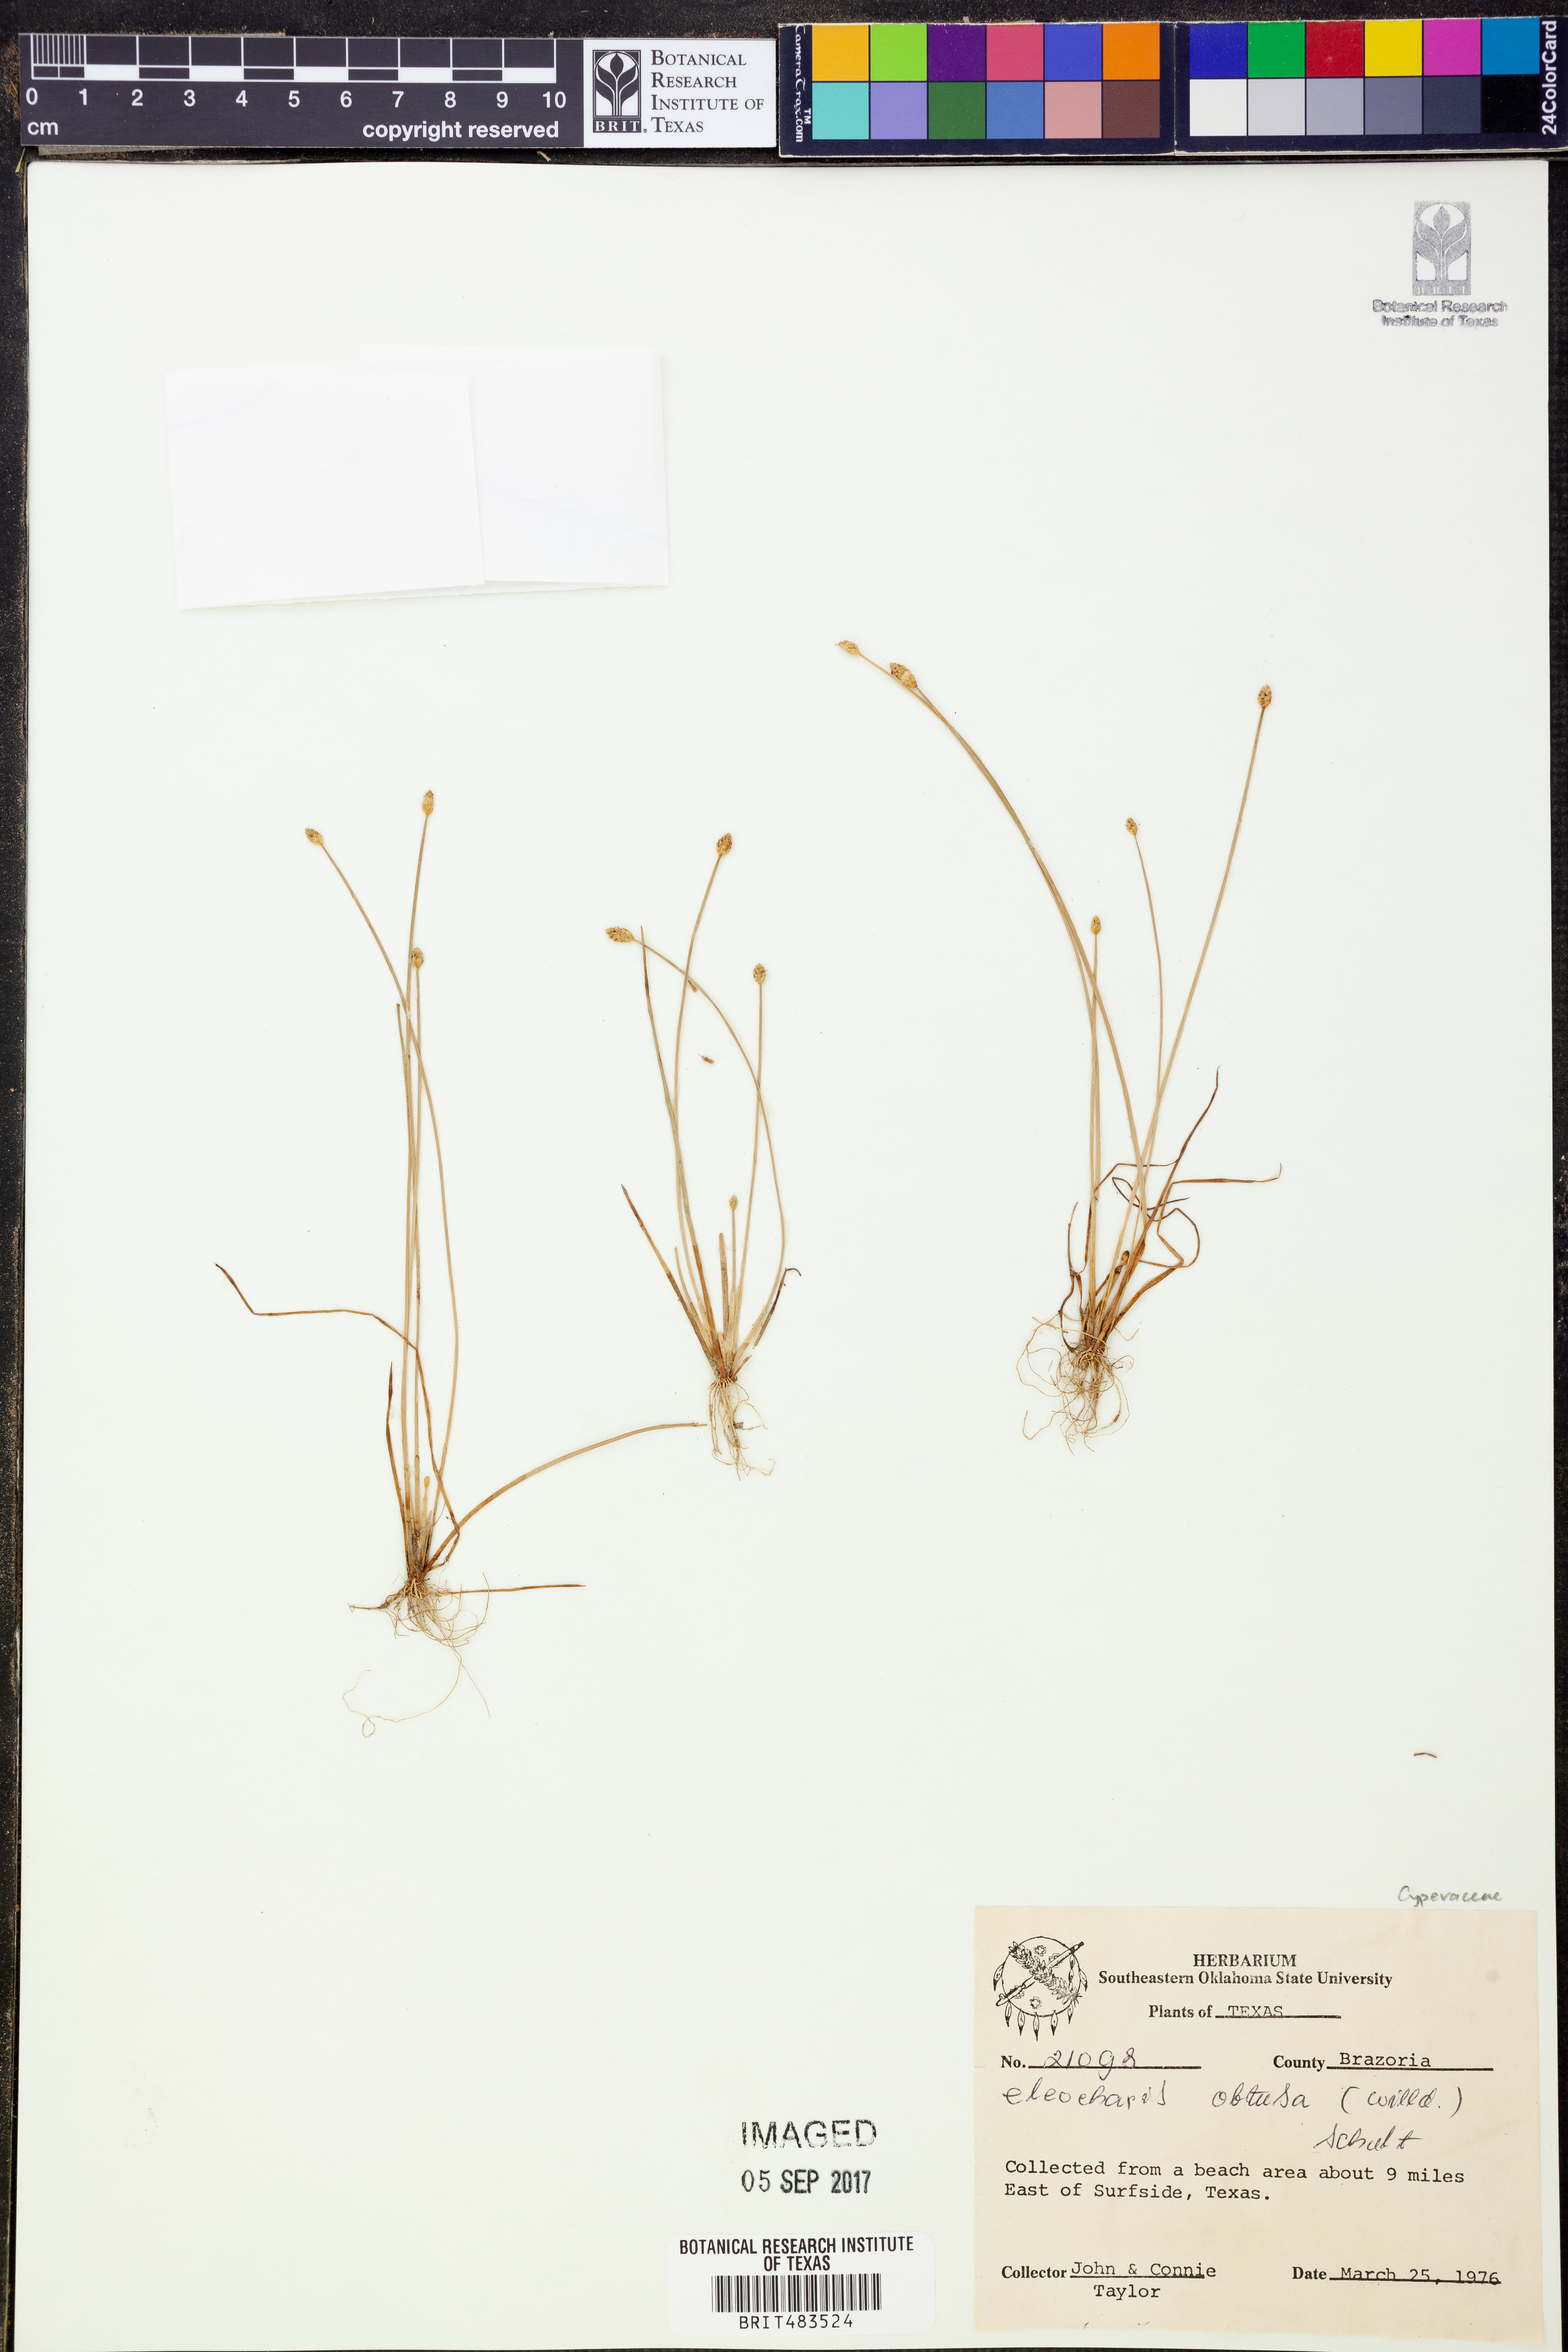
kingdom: Plantae
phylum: Tracheophyta
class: Liliopsida
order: Poales
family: Cyperaceae
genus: Eleocharis
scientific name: Eleocharis obtusa
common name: Blunt spikerush
